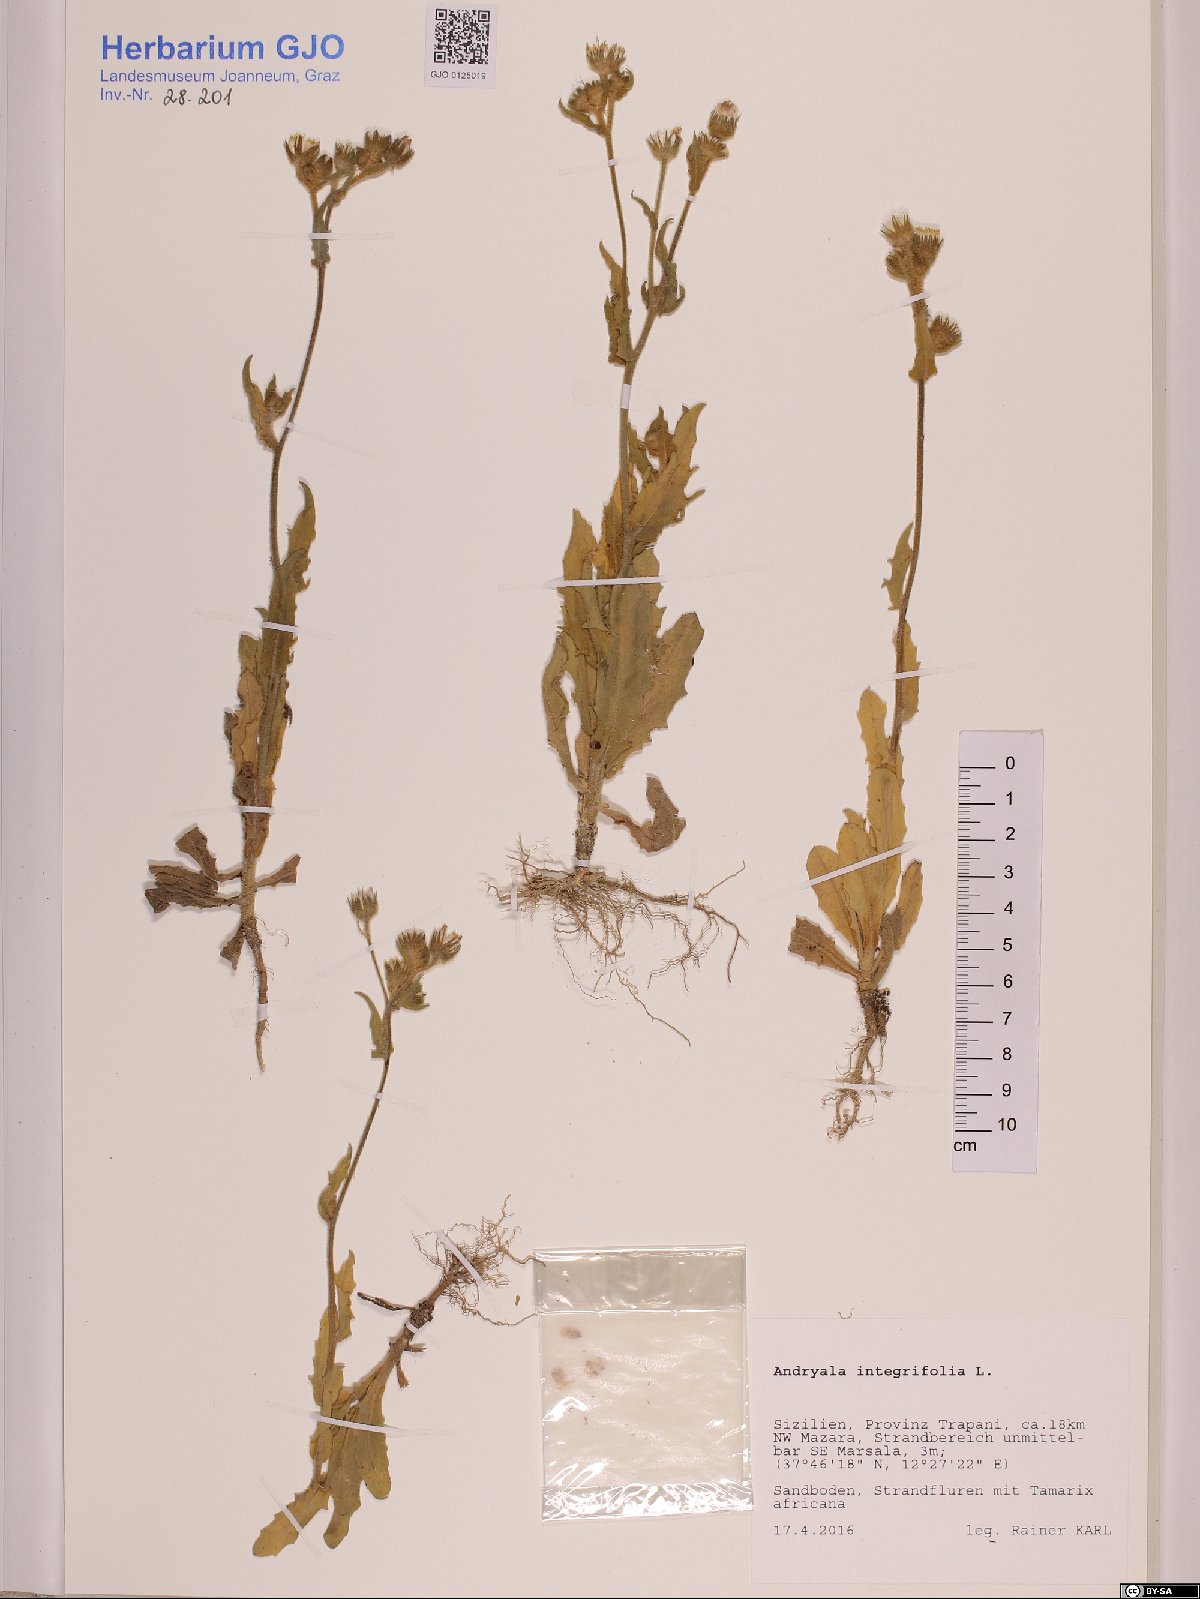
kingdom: Plantae
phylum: Tracheophyta
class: Magnoliopsida
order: Asterales
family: Asteraceae
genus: Andryala
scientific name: Andryala integrifolia
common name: Common andryala
